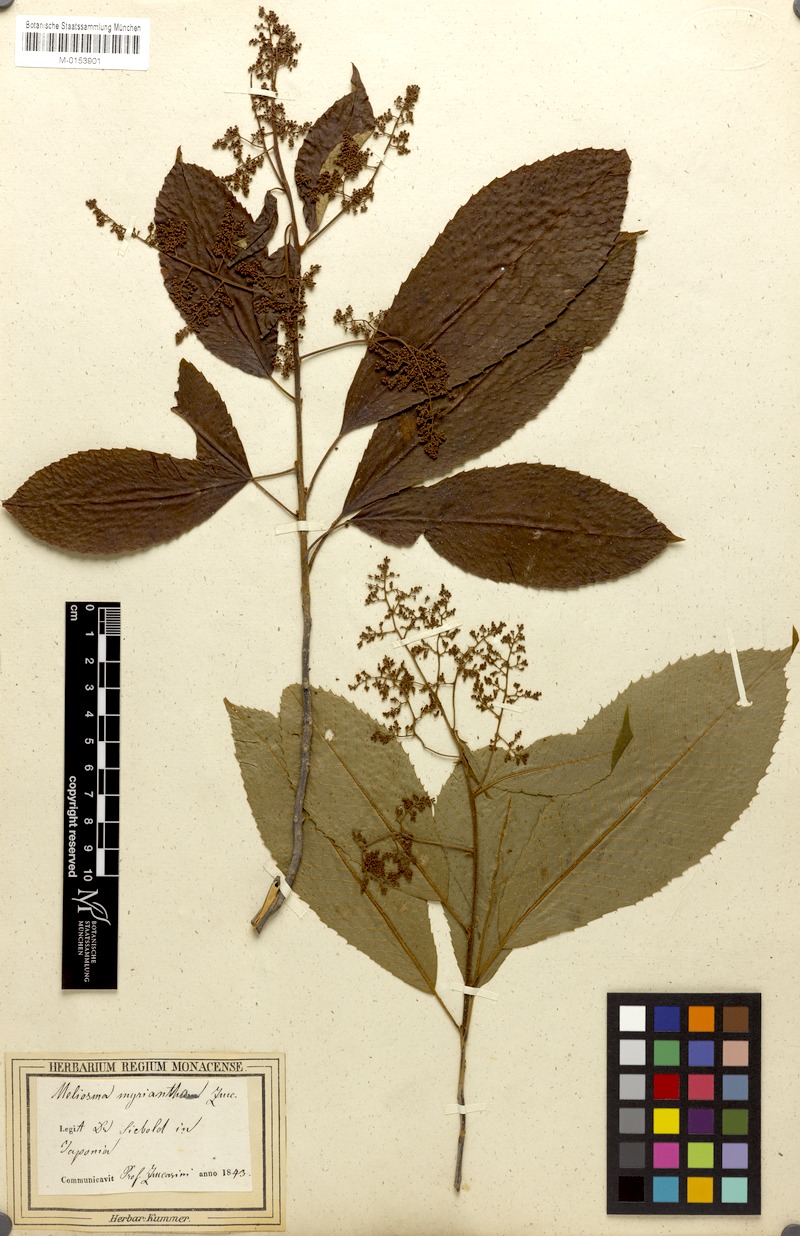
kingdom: Plantae
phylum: Tracheophyta
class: Magnoliopsida
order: Proteales
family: Sabiaceae
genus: Meliosma
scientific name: Meliosma myriantha
